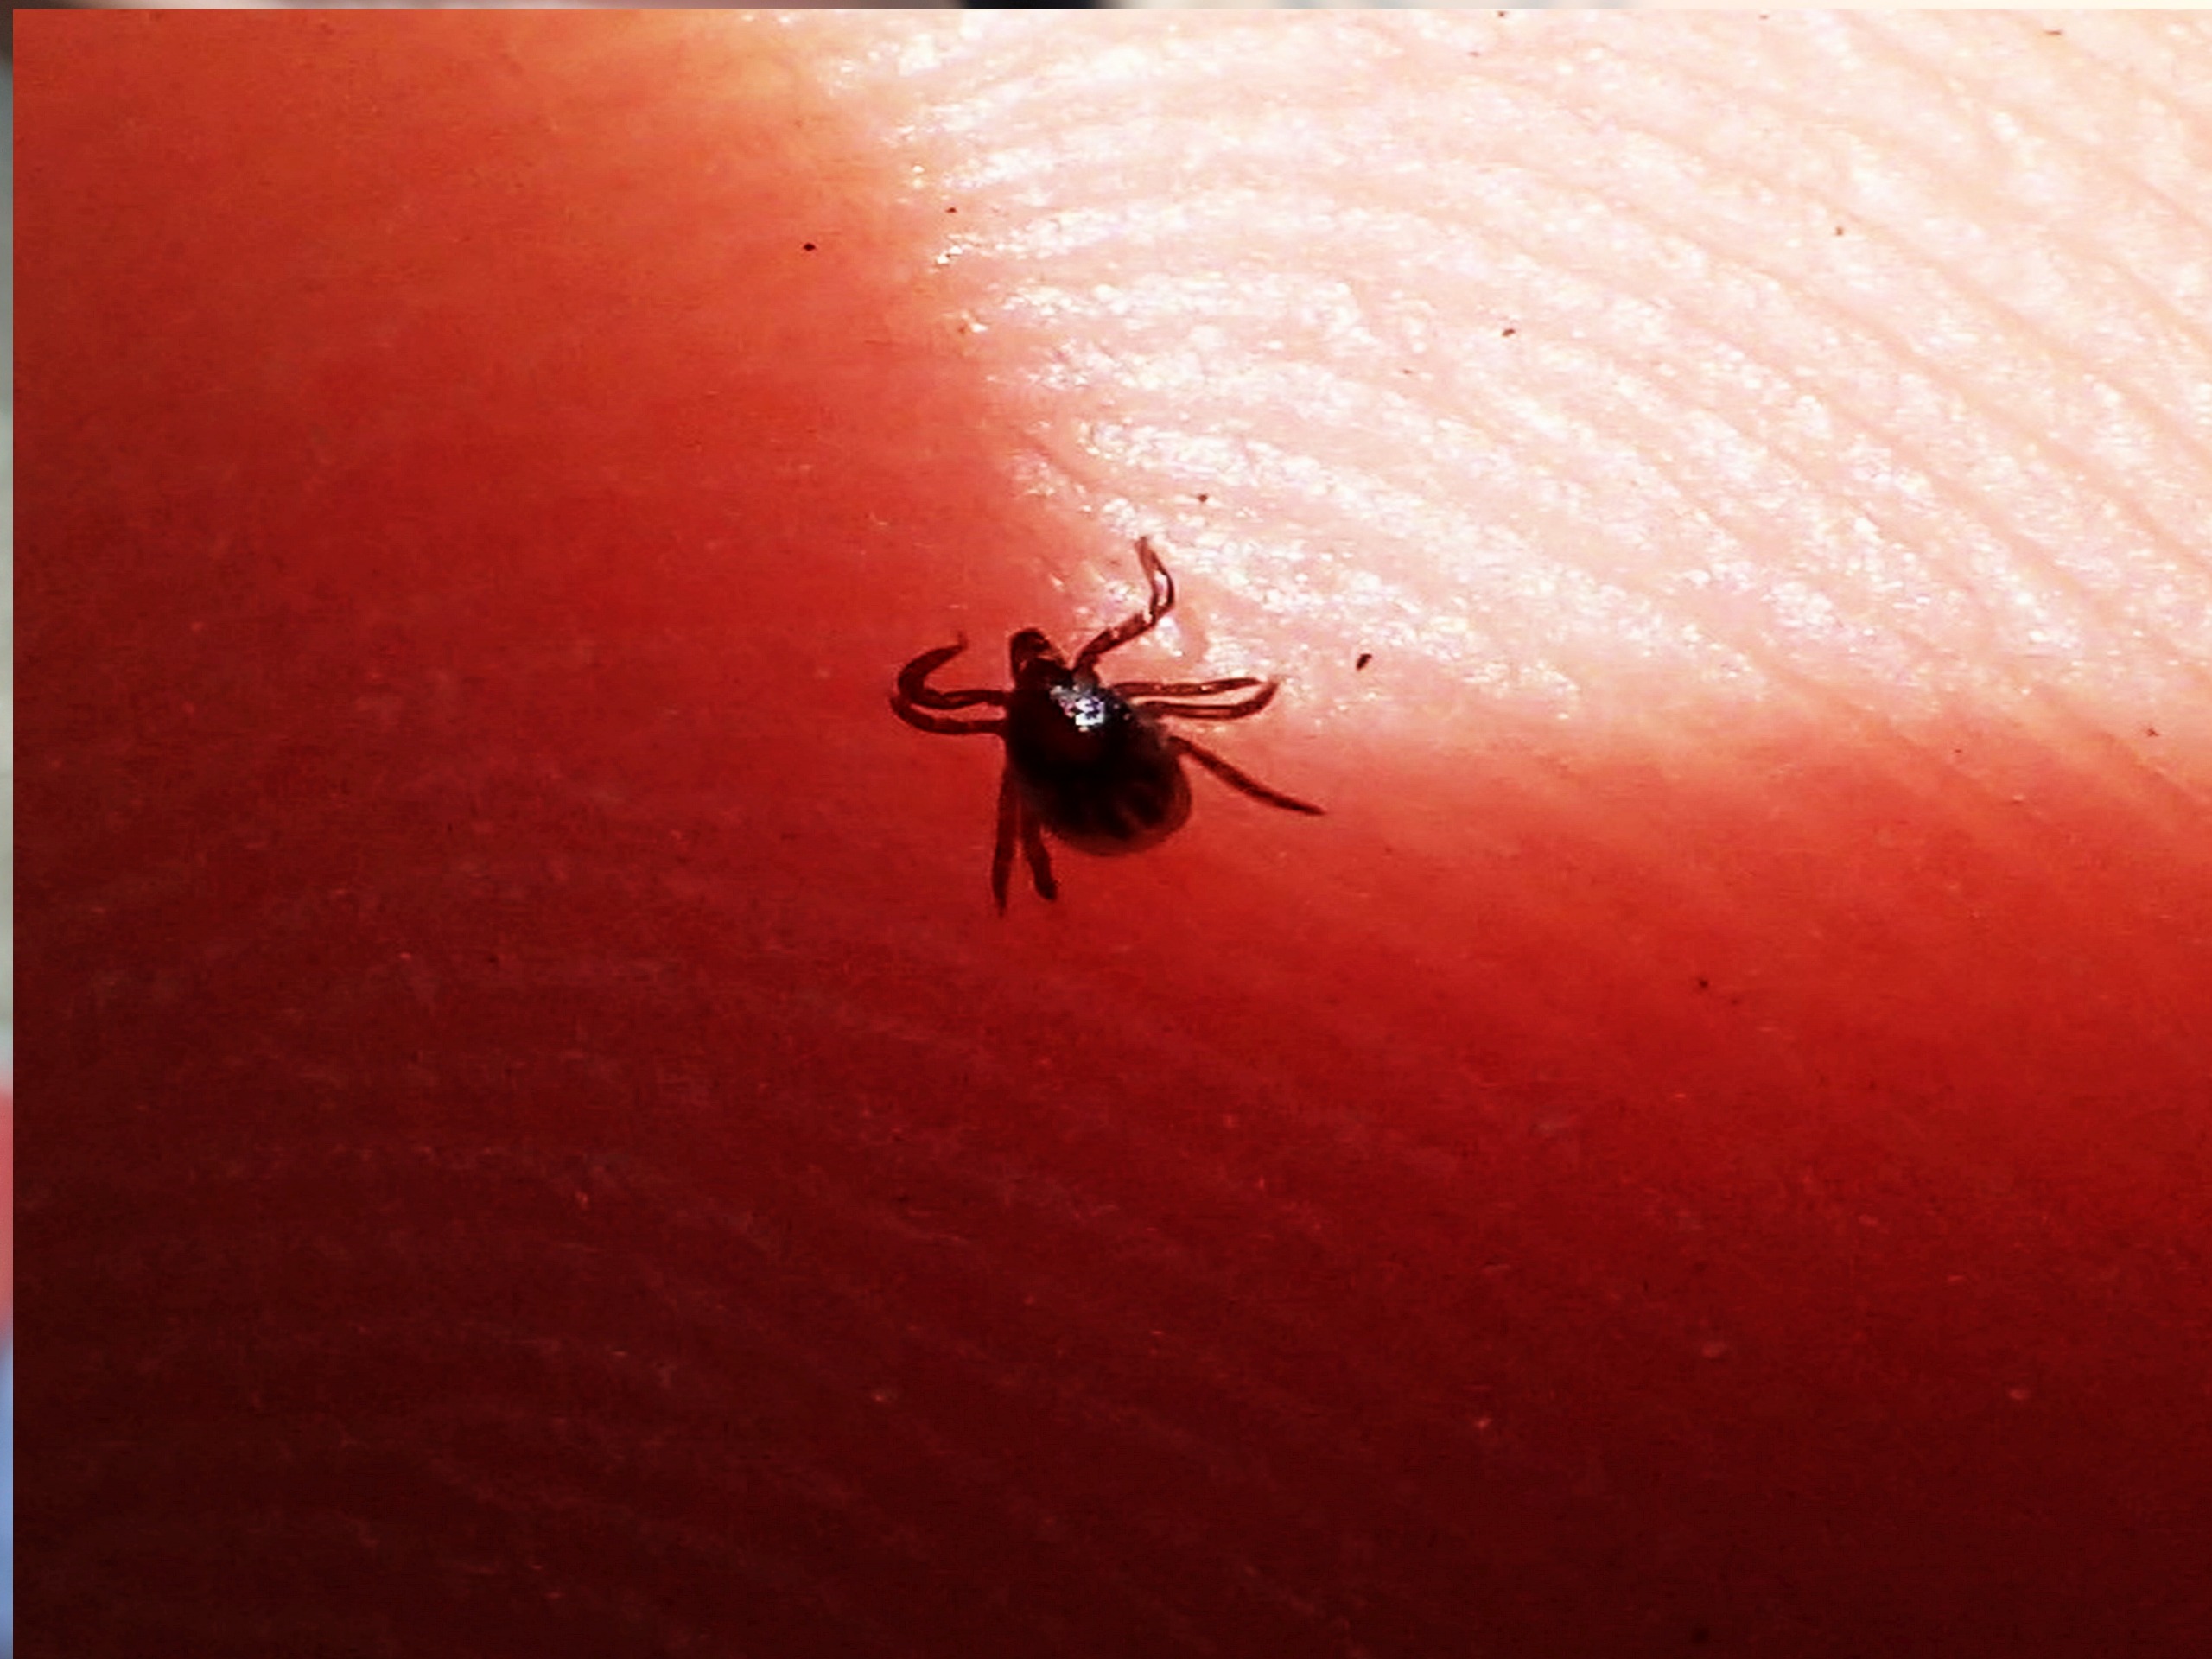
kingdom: Animalia
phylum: Arthropoda
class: Arachnida
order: Ixodida
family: Ixodidae
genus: Ixodes
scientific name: Ixodes ricinus
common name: Skovflåt
